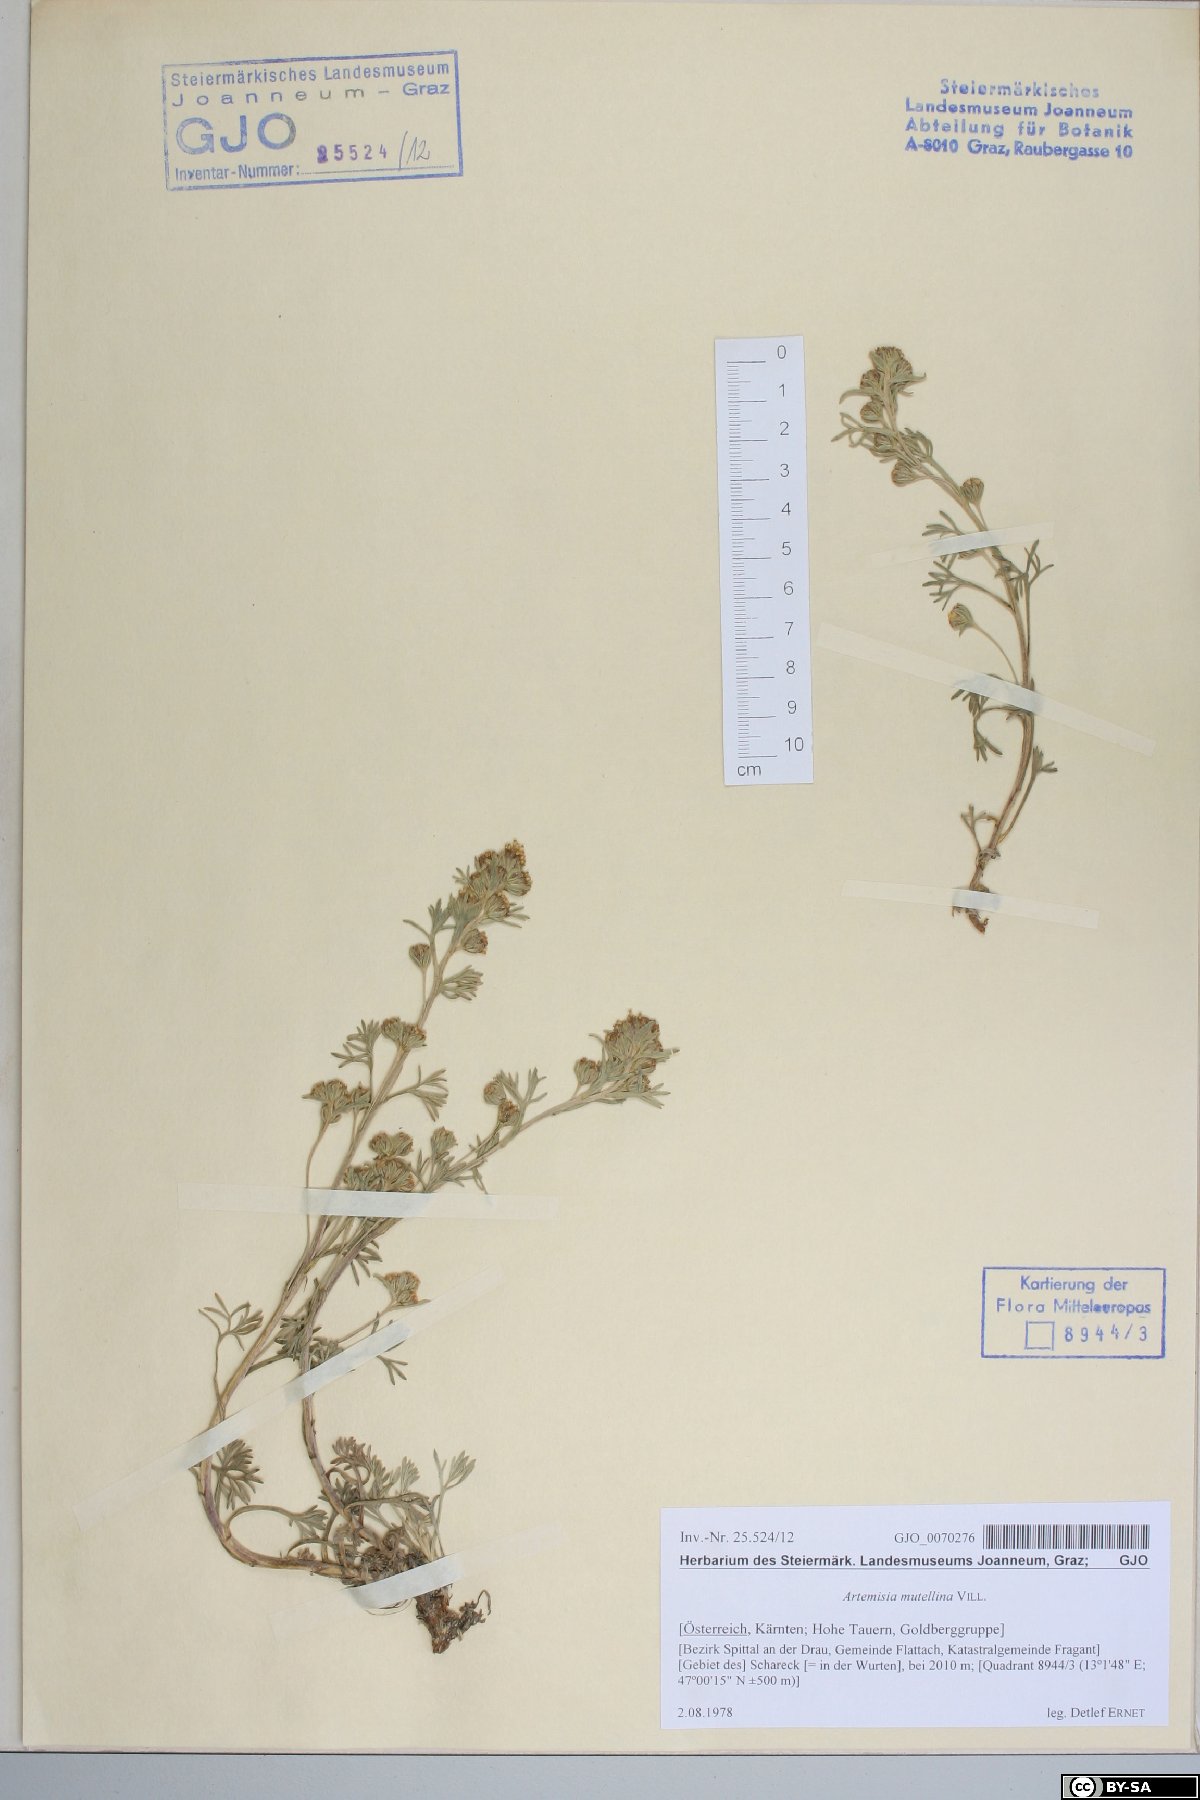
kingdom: Plantae
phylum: Tracheophyta
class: Magnoliopsida
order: Asterales
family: Asteraceae
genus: Artemisia
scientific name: Artemisia mutellina
